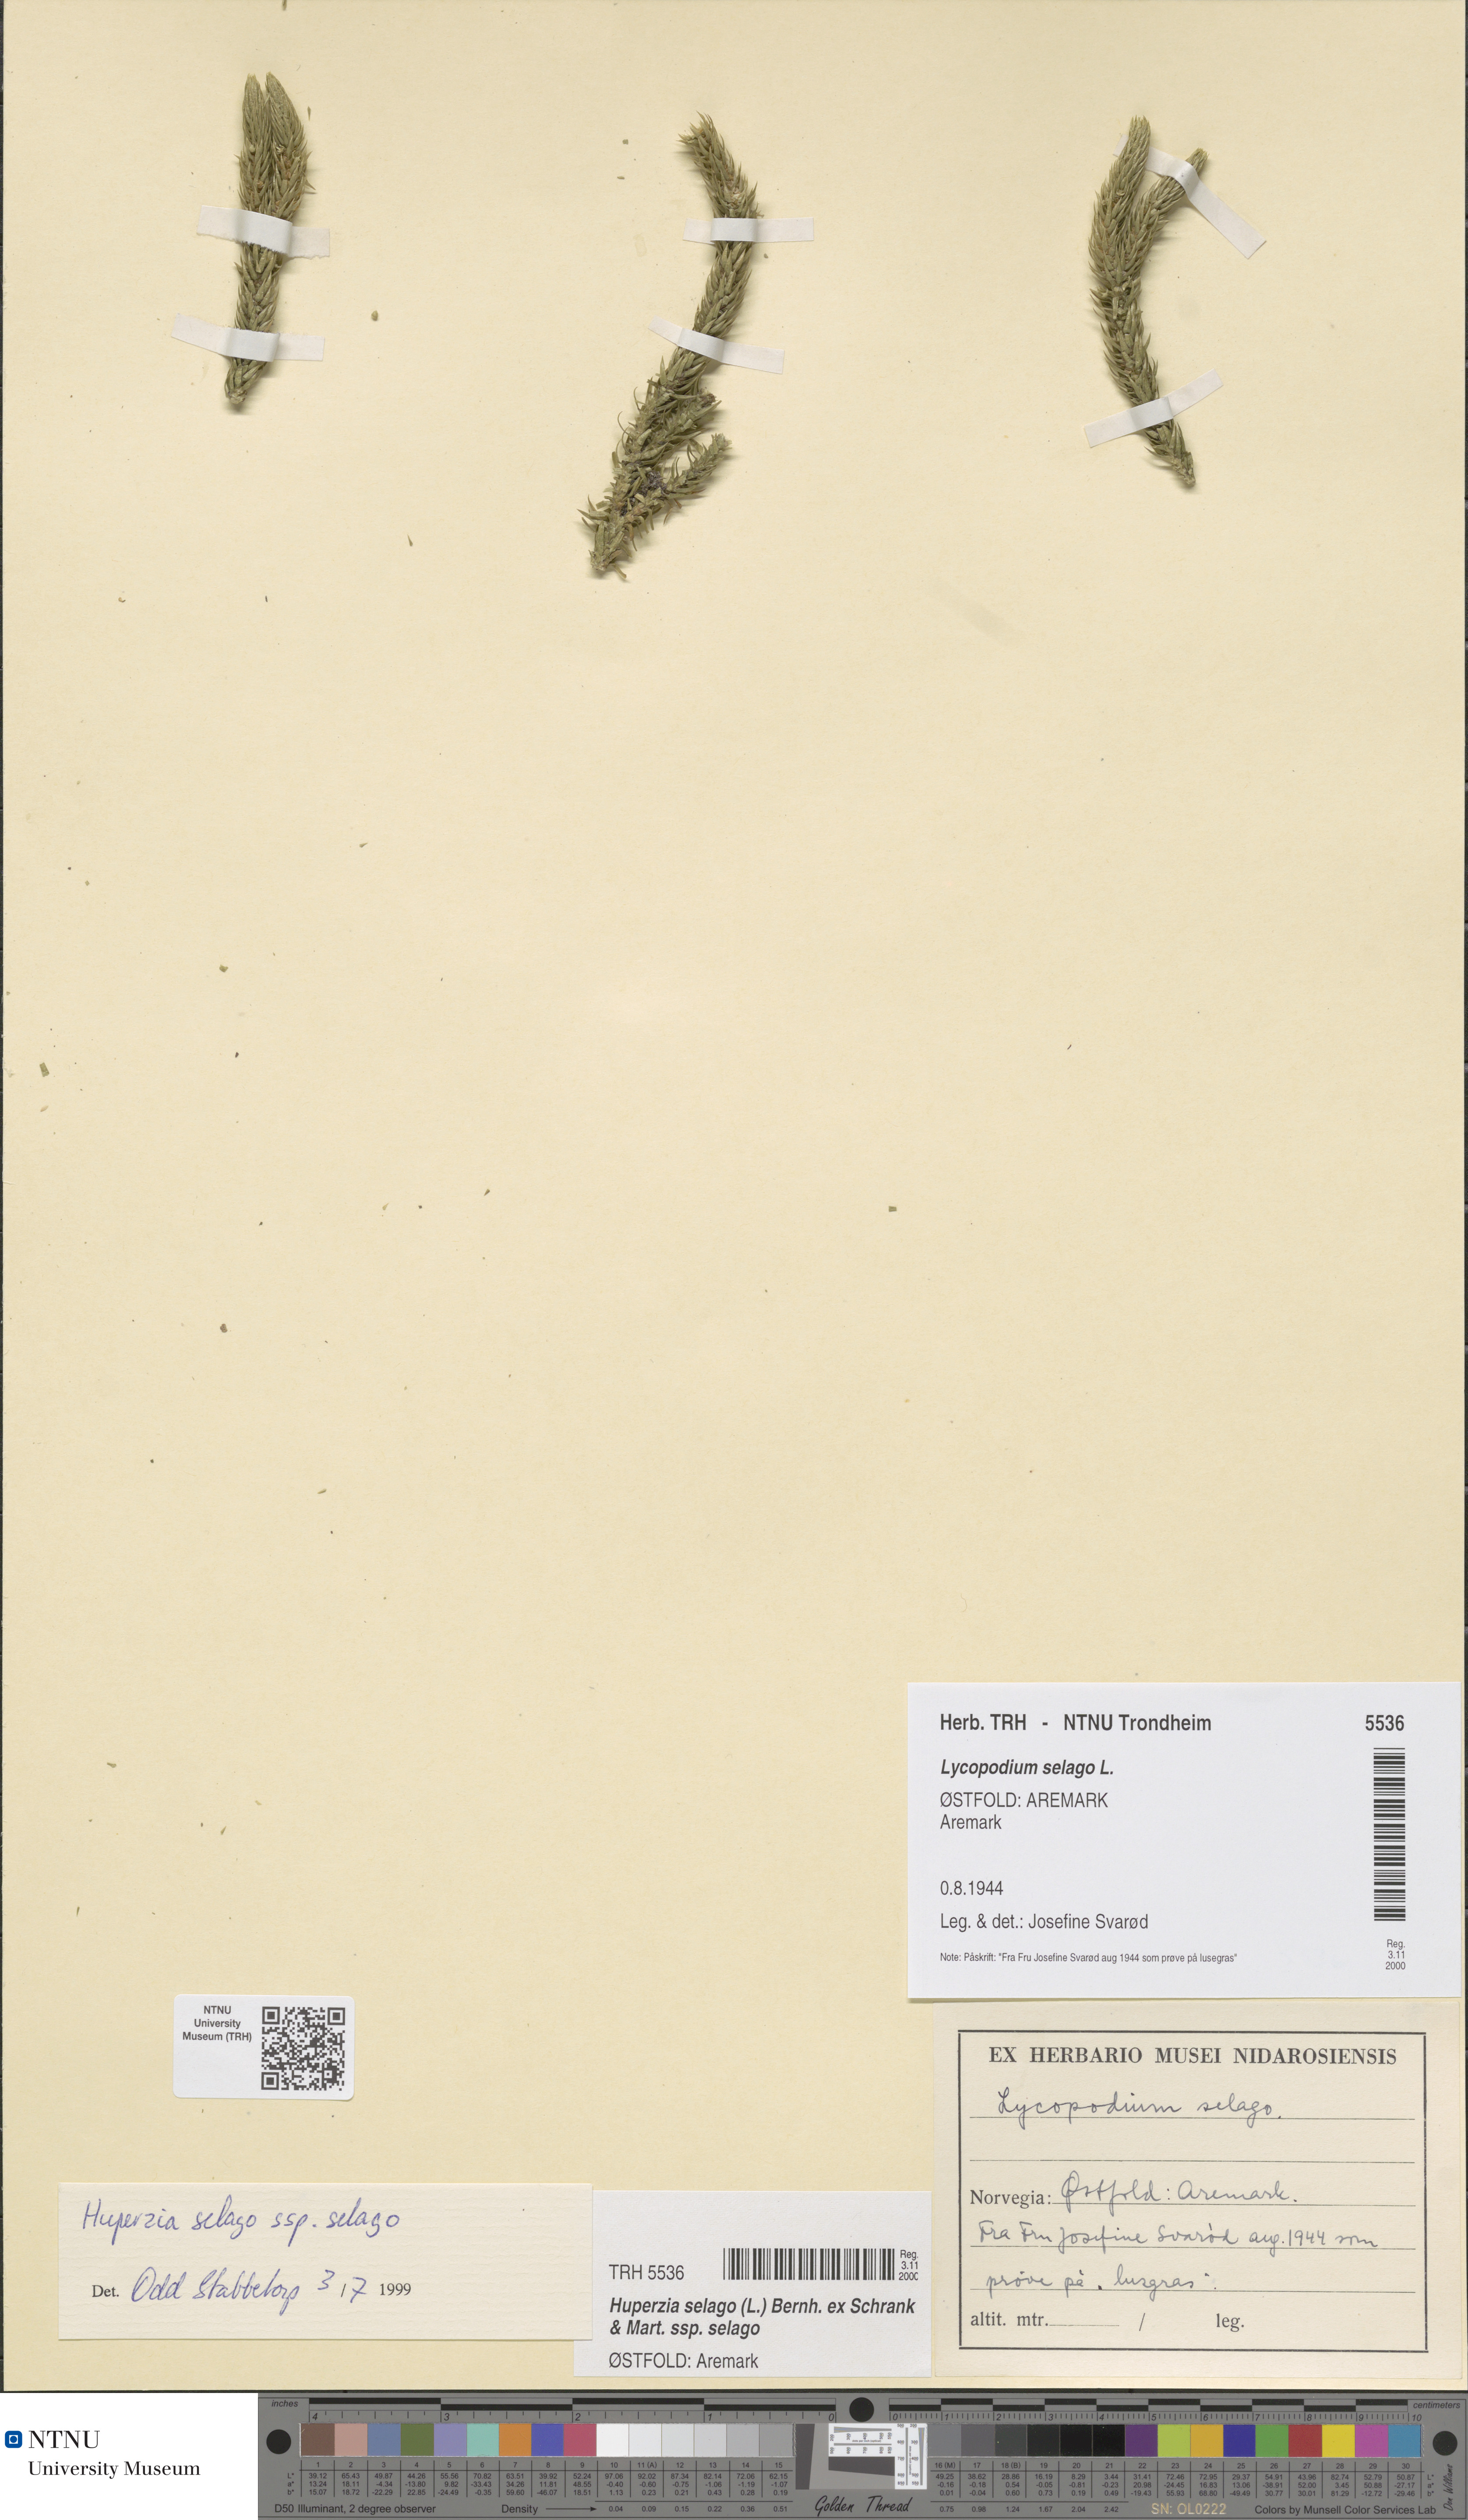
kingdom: Plantae
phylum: Tracheophyta
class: Lycopodiopsida
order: Lycopodiales
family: Lycopodiaceae
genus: Huperzia
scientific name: Huperzia selago
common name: Northern firmoss
